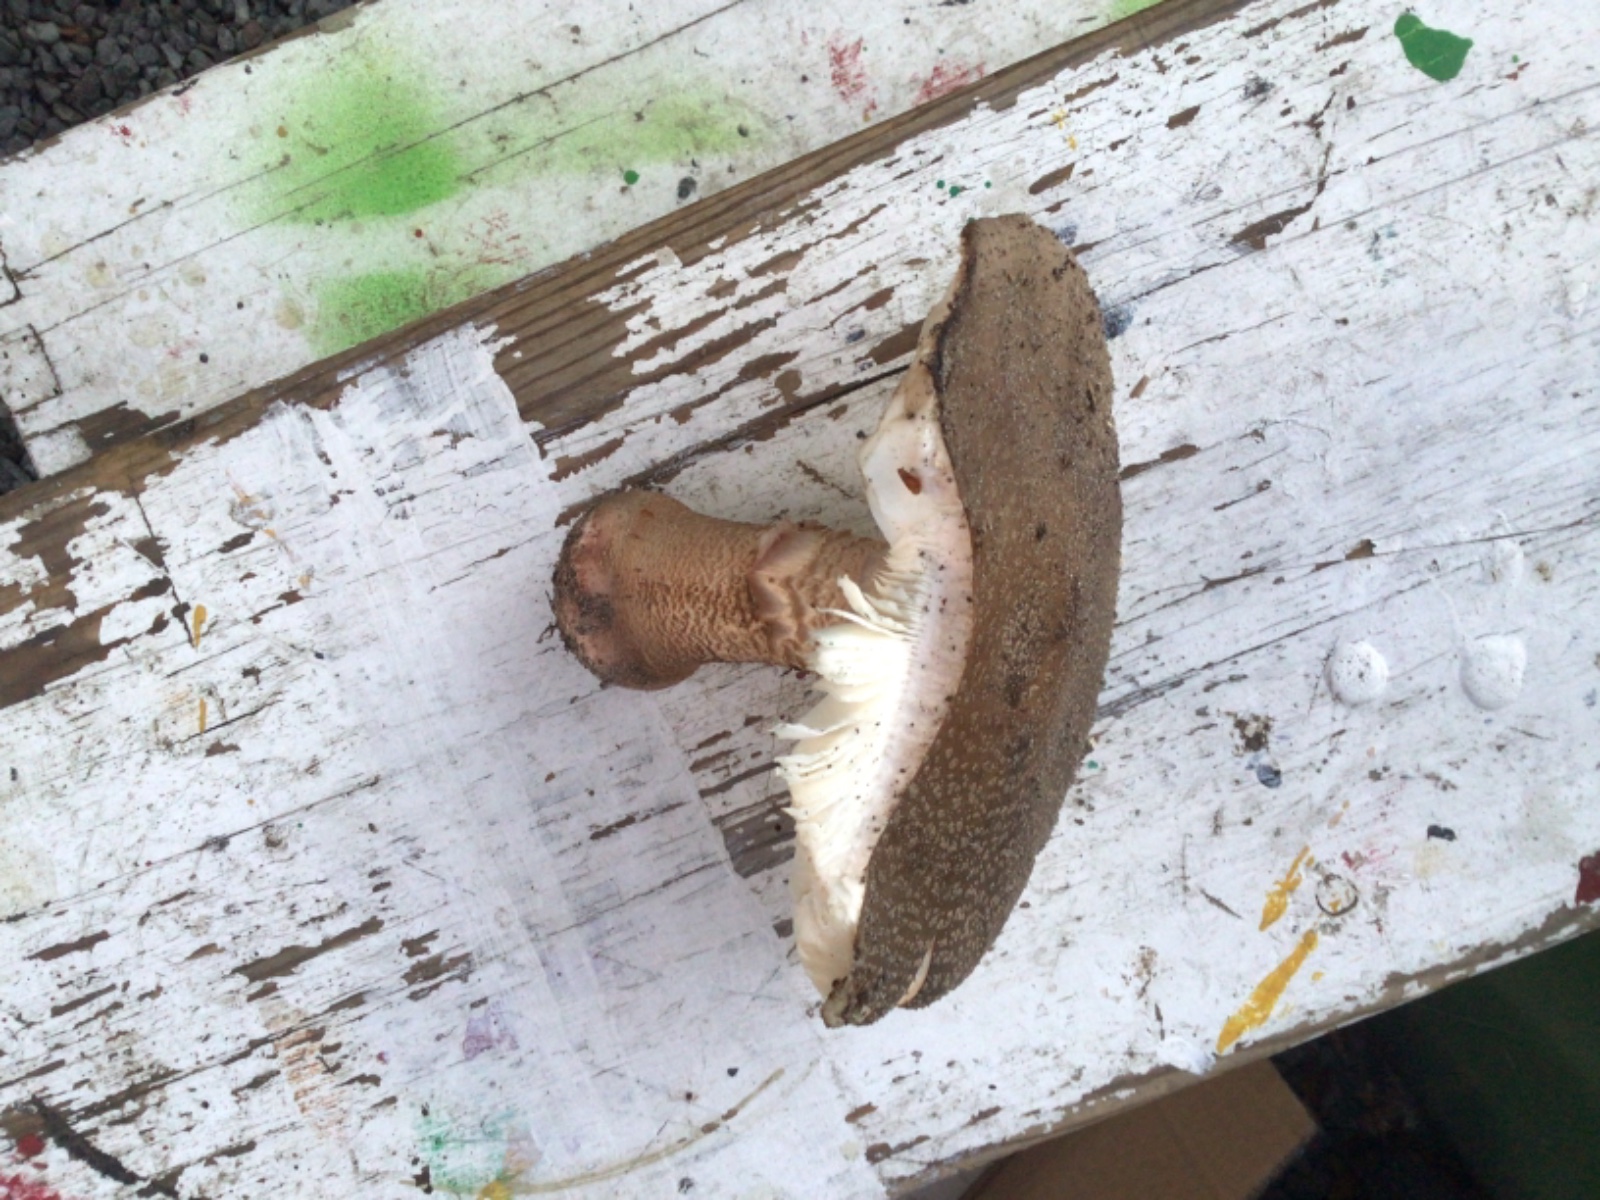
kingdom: Fungi
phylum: Basidiomycota
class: Agaricomycetes
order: Agaricales
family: Amanitaceae
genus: Amanita
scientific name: Amanita rubescens
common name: rødmende fluesvamp
